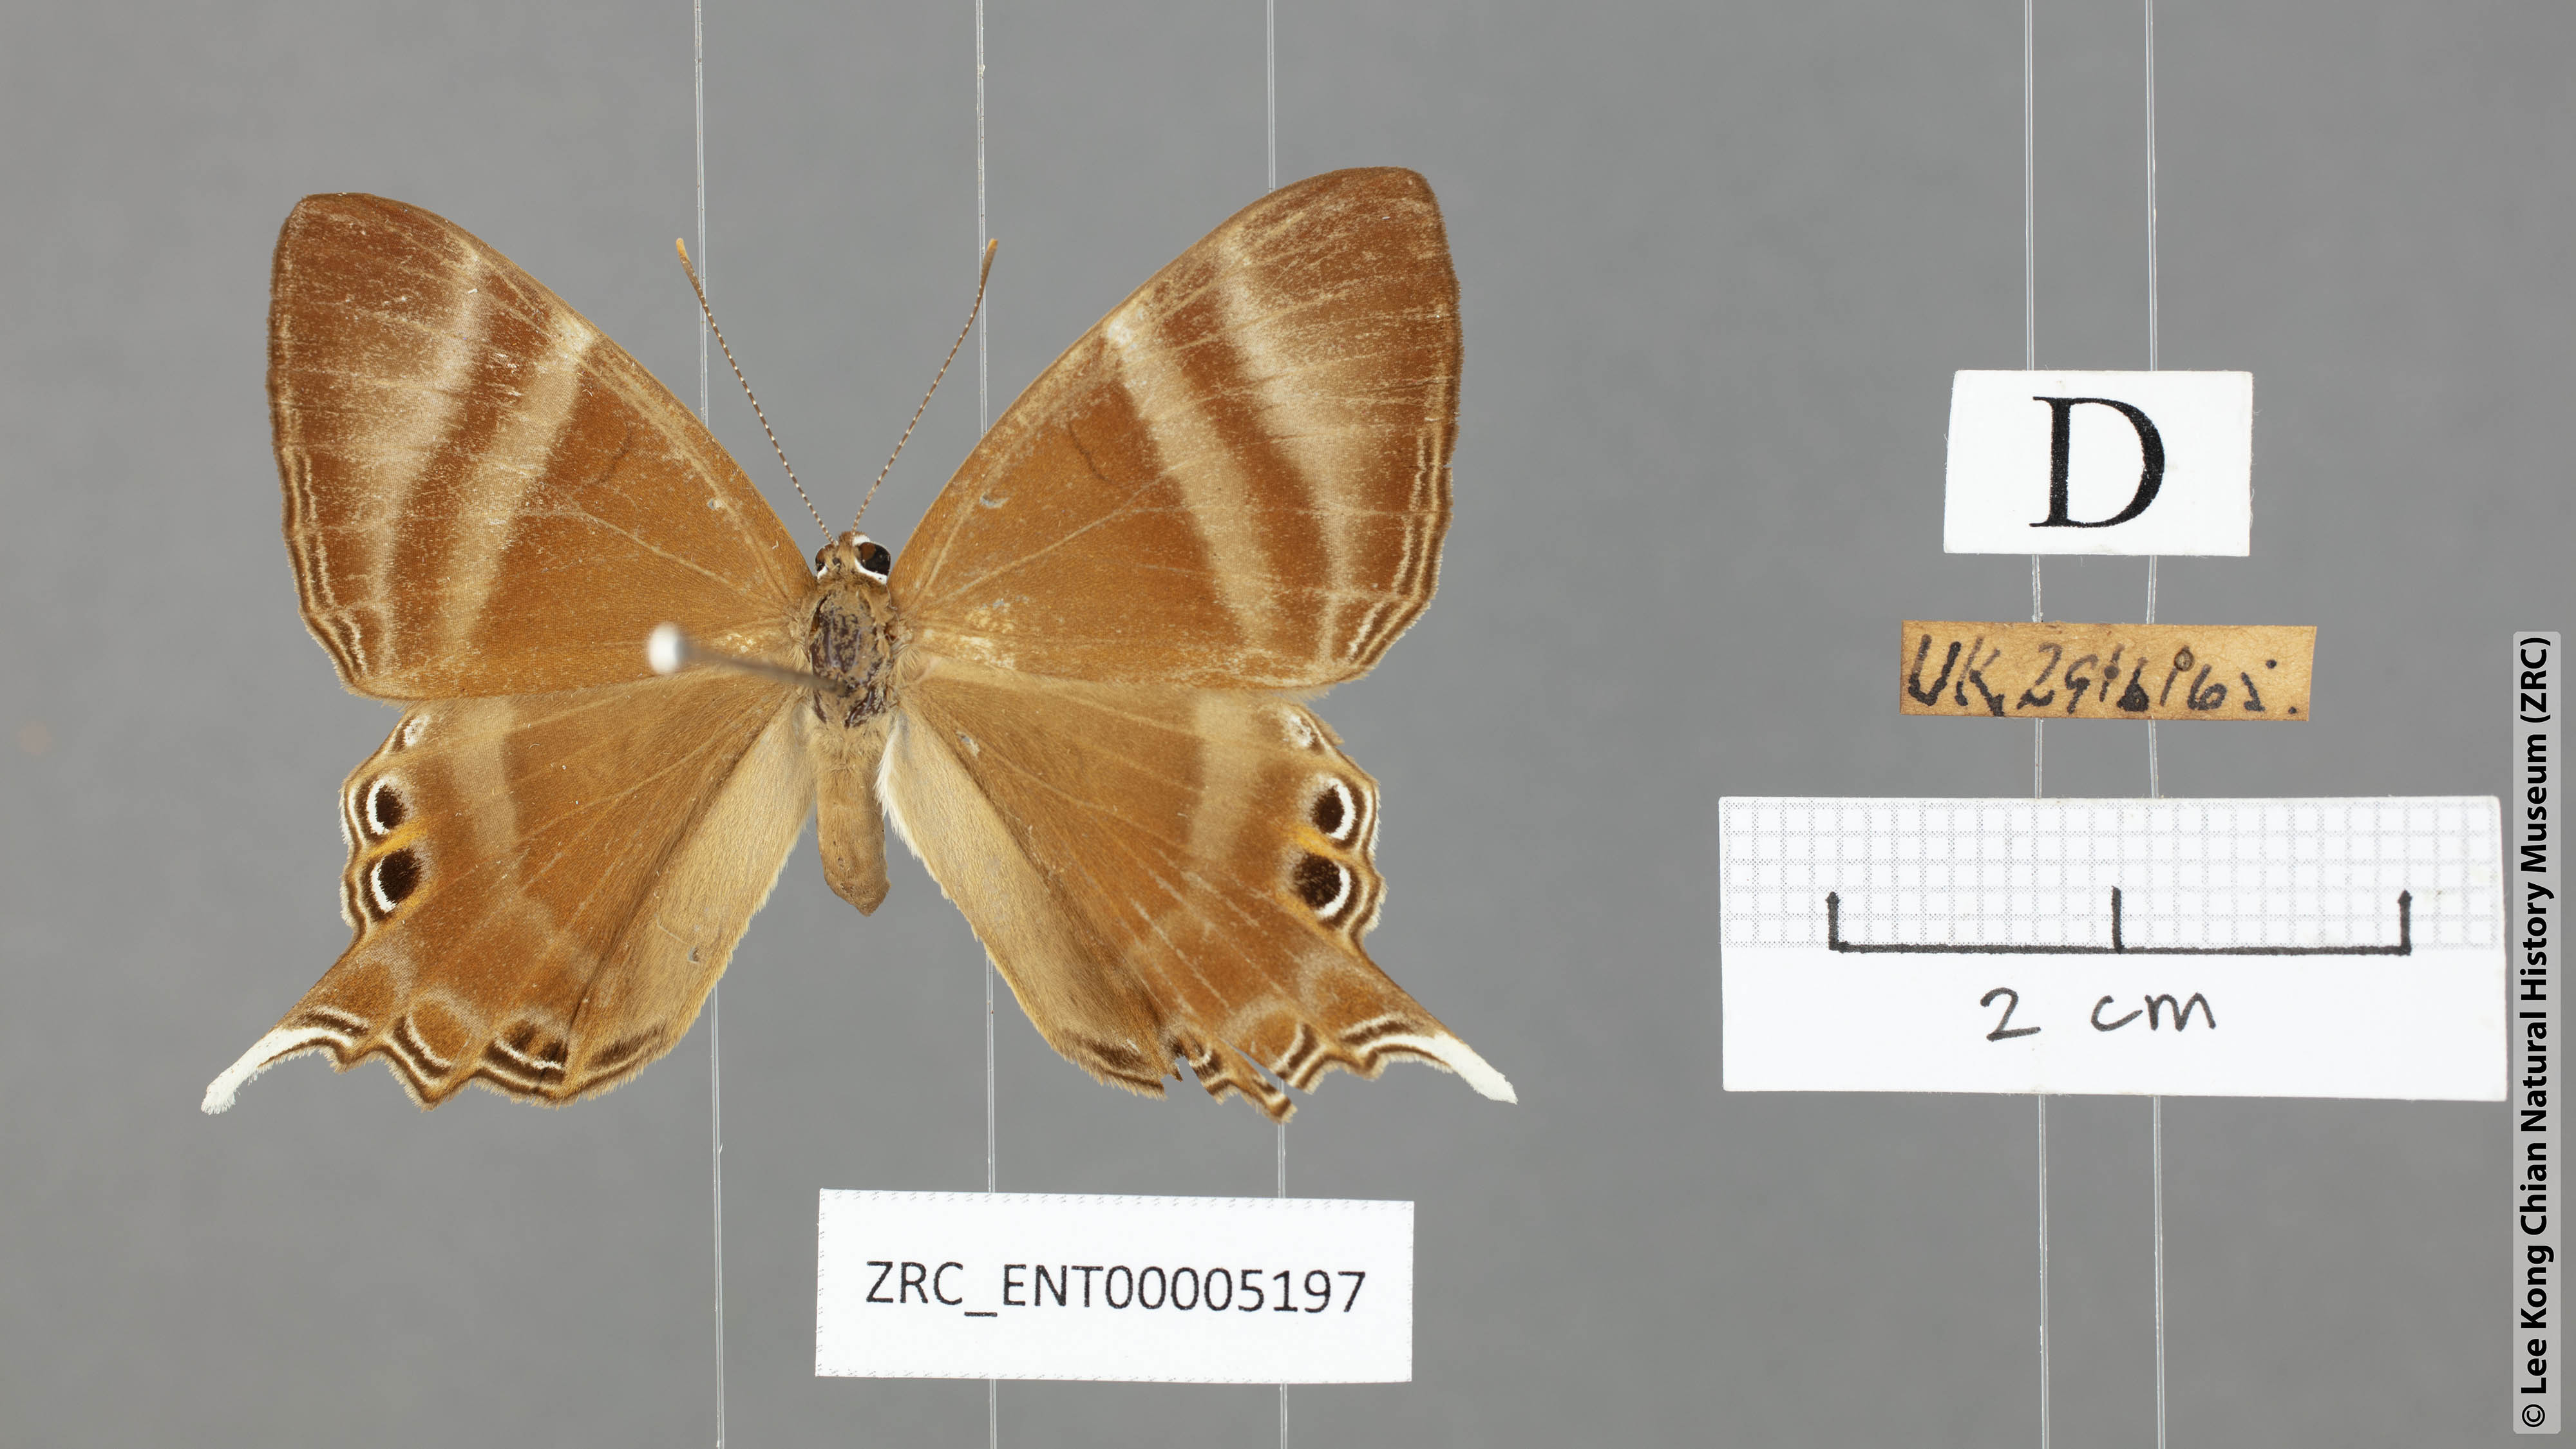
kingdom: Animalia
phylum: Arthropoda
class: Insecta
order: Lepidoptera
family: Riodinidae
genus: Archigenes
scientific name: Archigenes savitri
